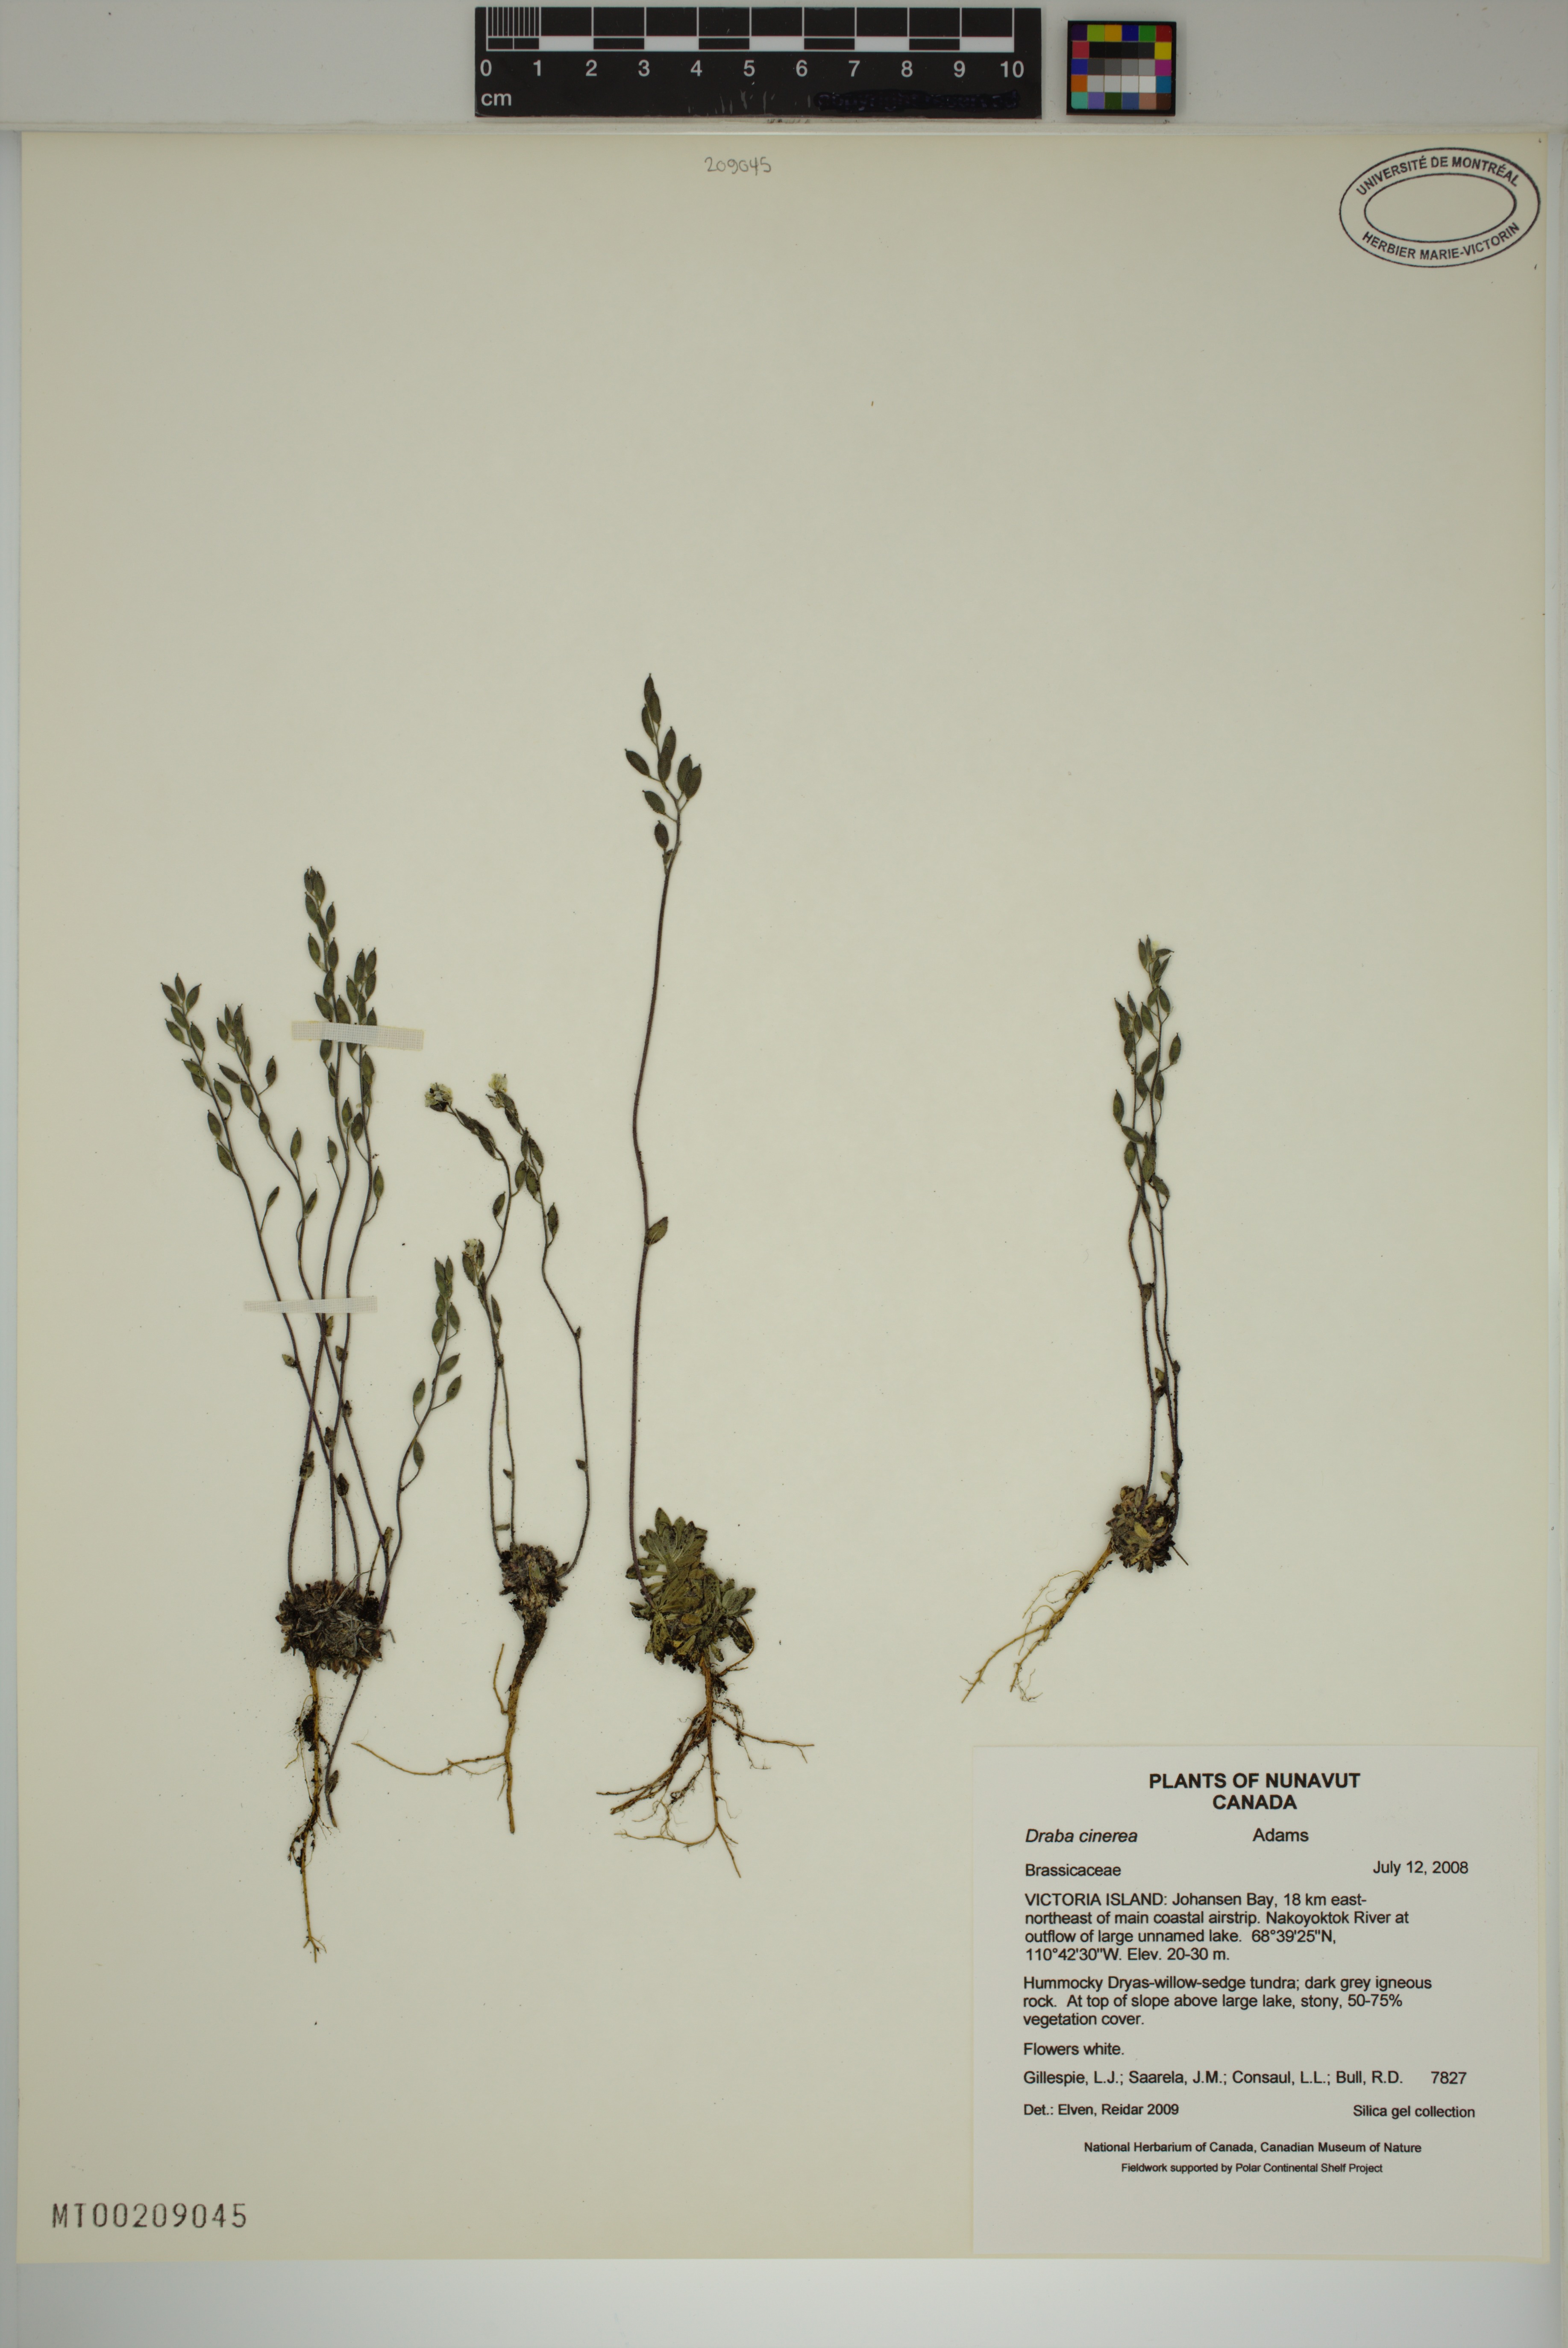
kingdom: Plantae
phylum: Tracheophyta
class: Magnoliopsida
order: Brassicales
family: Brassicaceae
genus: Draba
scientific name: Draba cinerea
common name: Ash-coloured whitlow-grass
